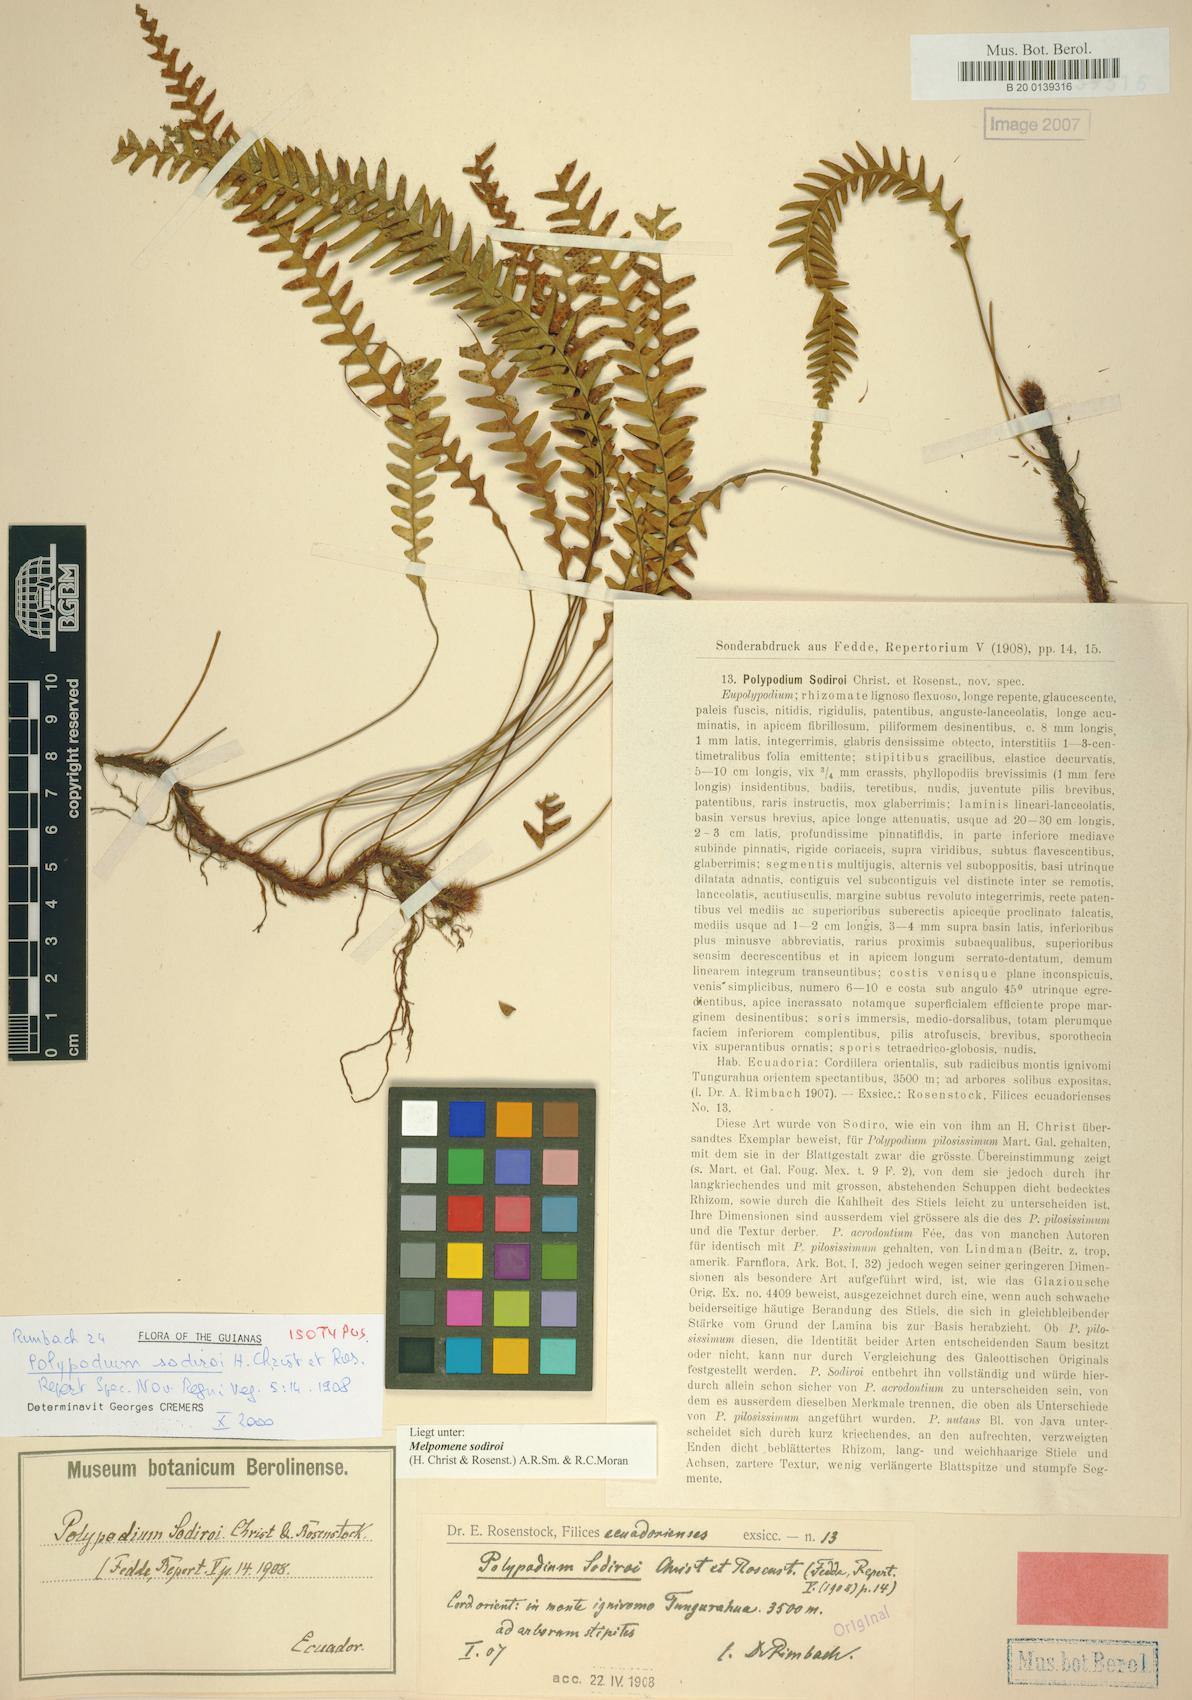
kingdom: Plantae
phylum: Tracheophyta
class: Polypodiopsida
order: Polypodiales
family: Polypodiaceae
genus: Melpomene
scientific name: Melpomene sodiroi
